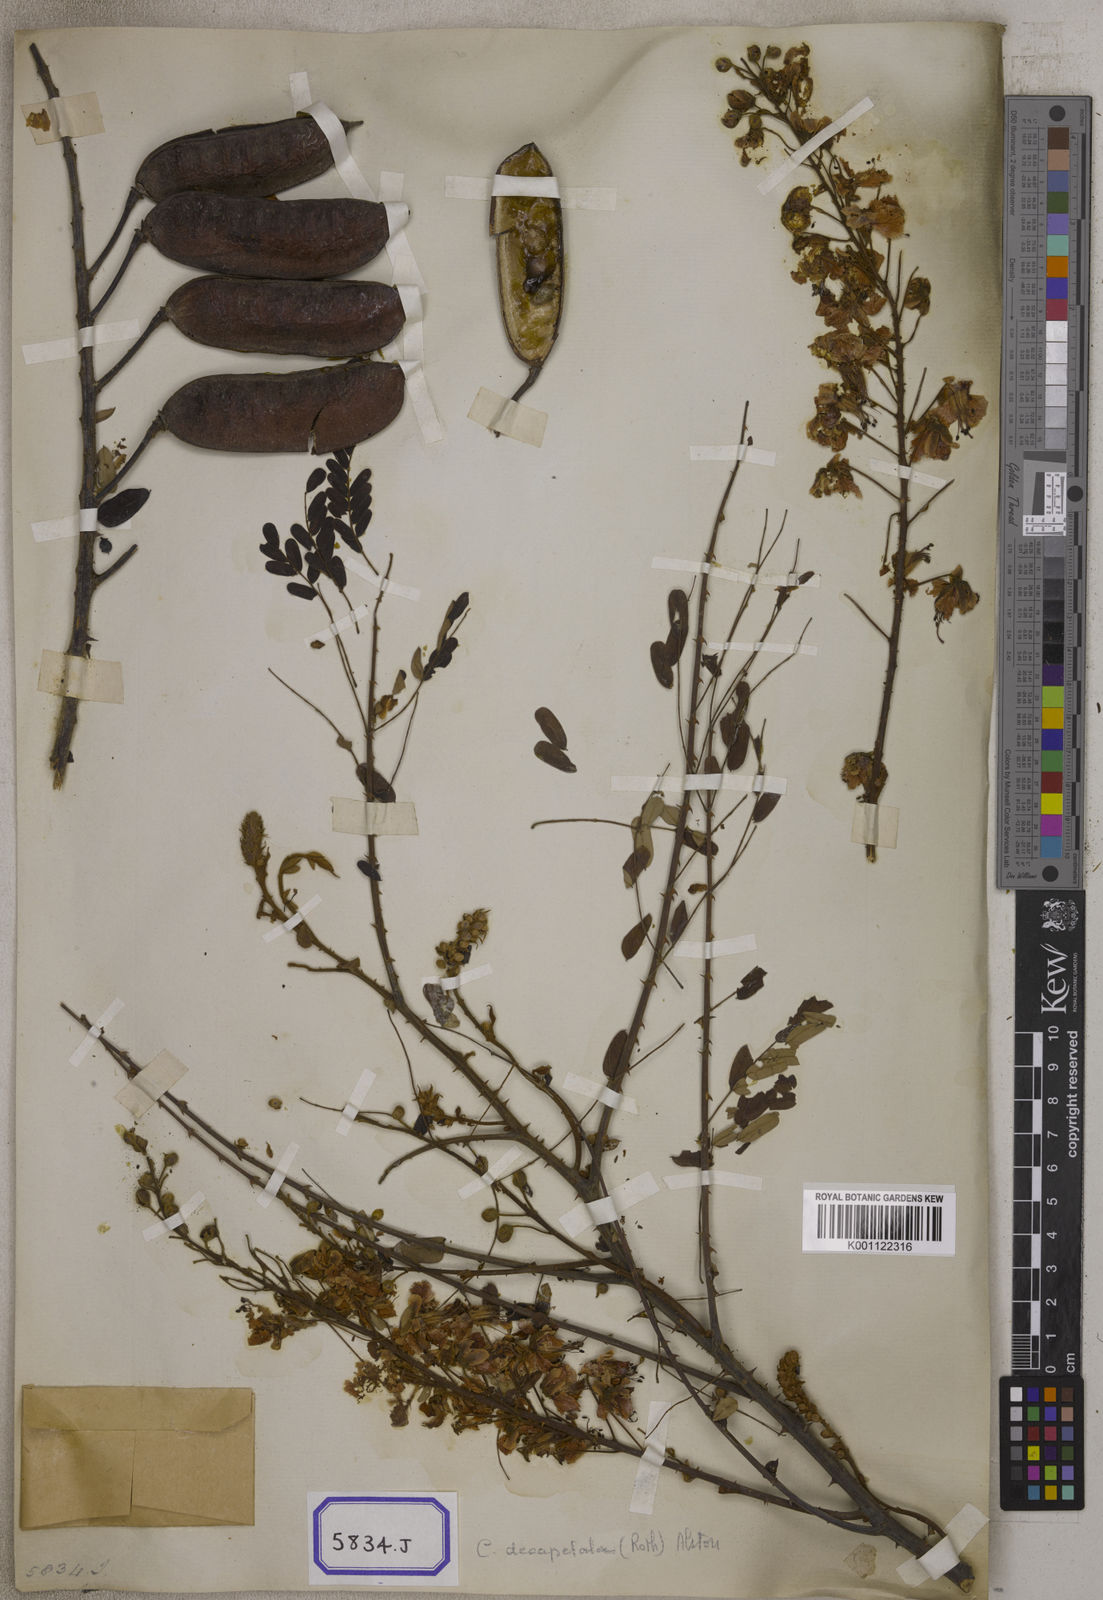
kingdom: Plantae
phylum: Tracheophyta
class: Magnoliopsida
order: Fabales
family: Fabaceae
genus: Caesalpinia
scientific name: Caesalpinia
